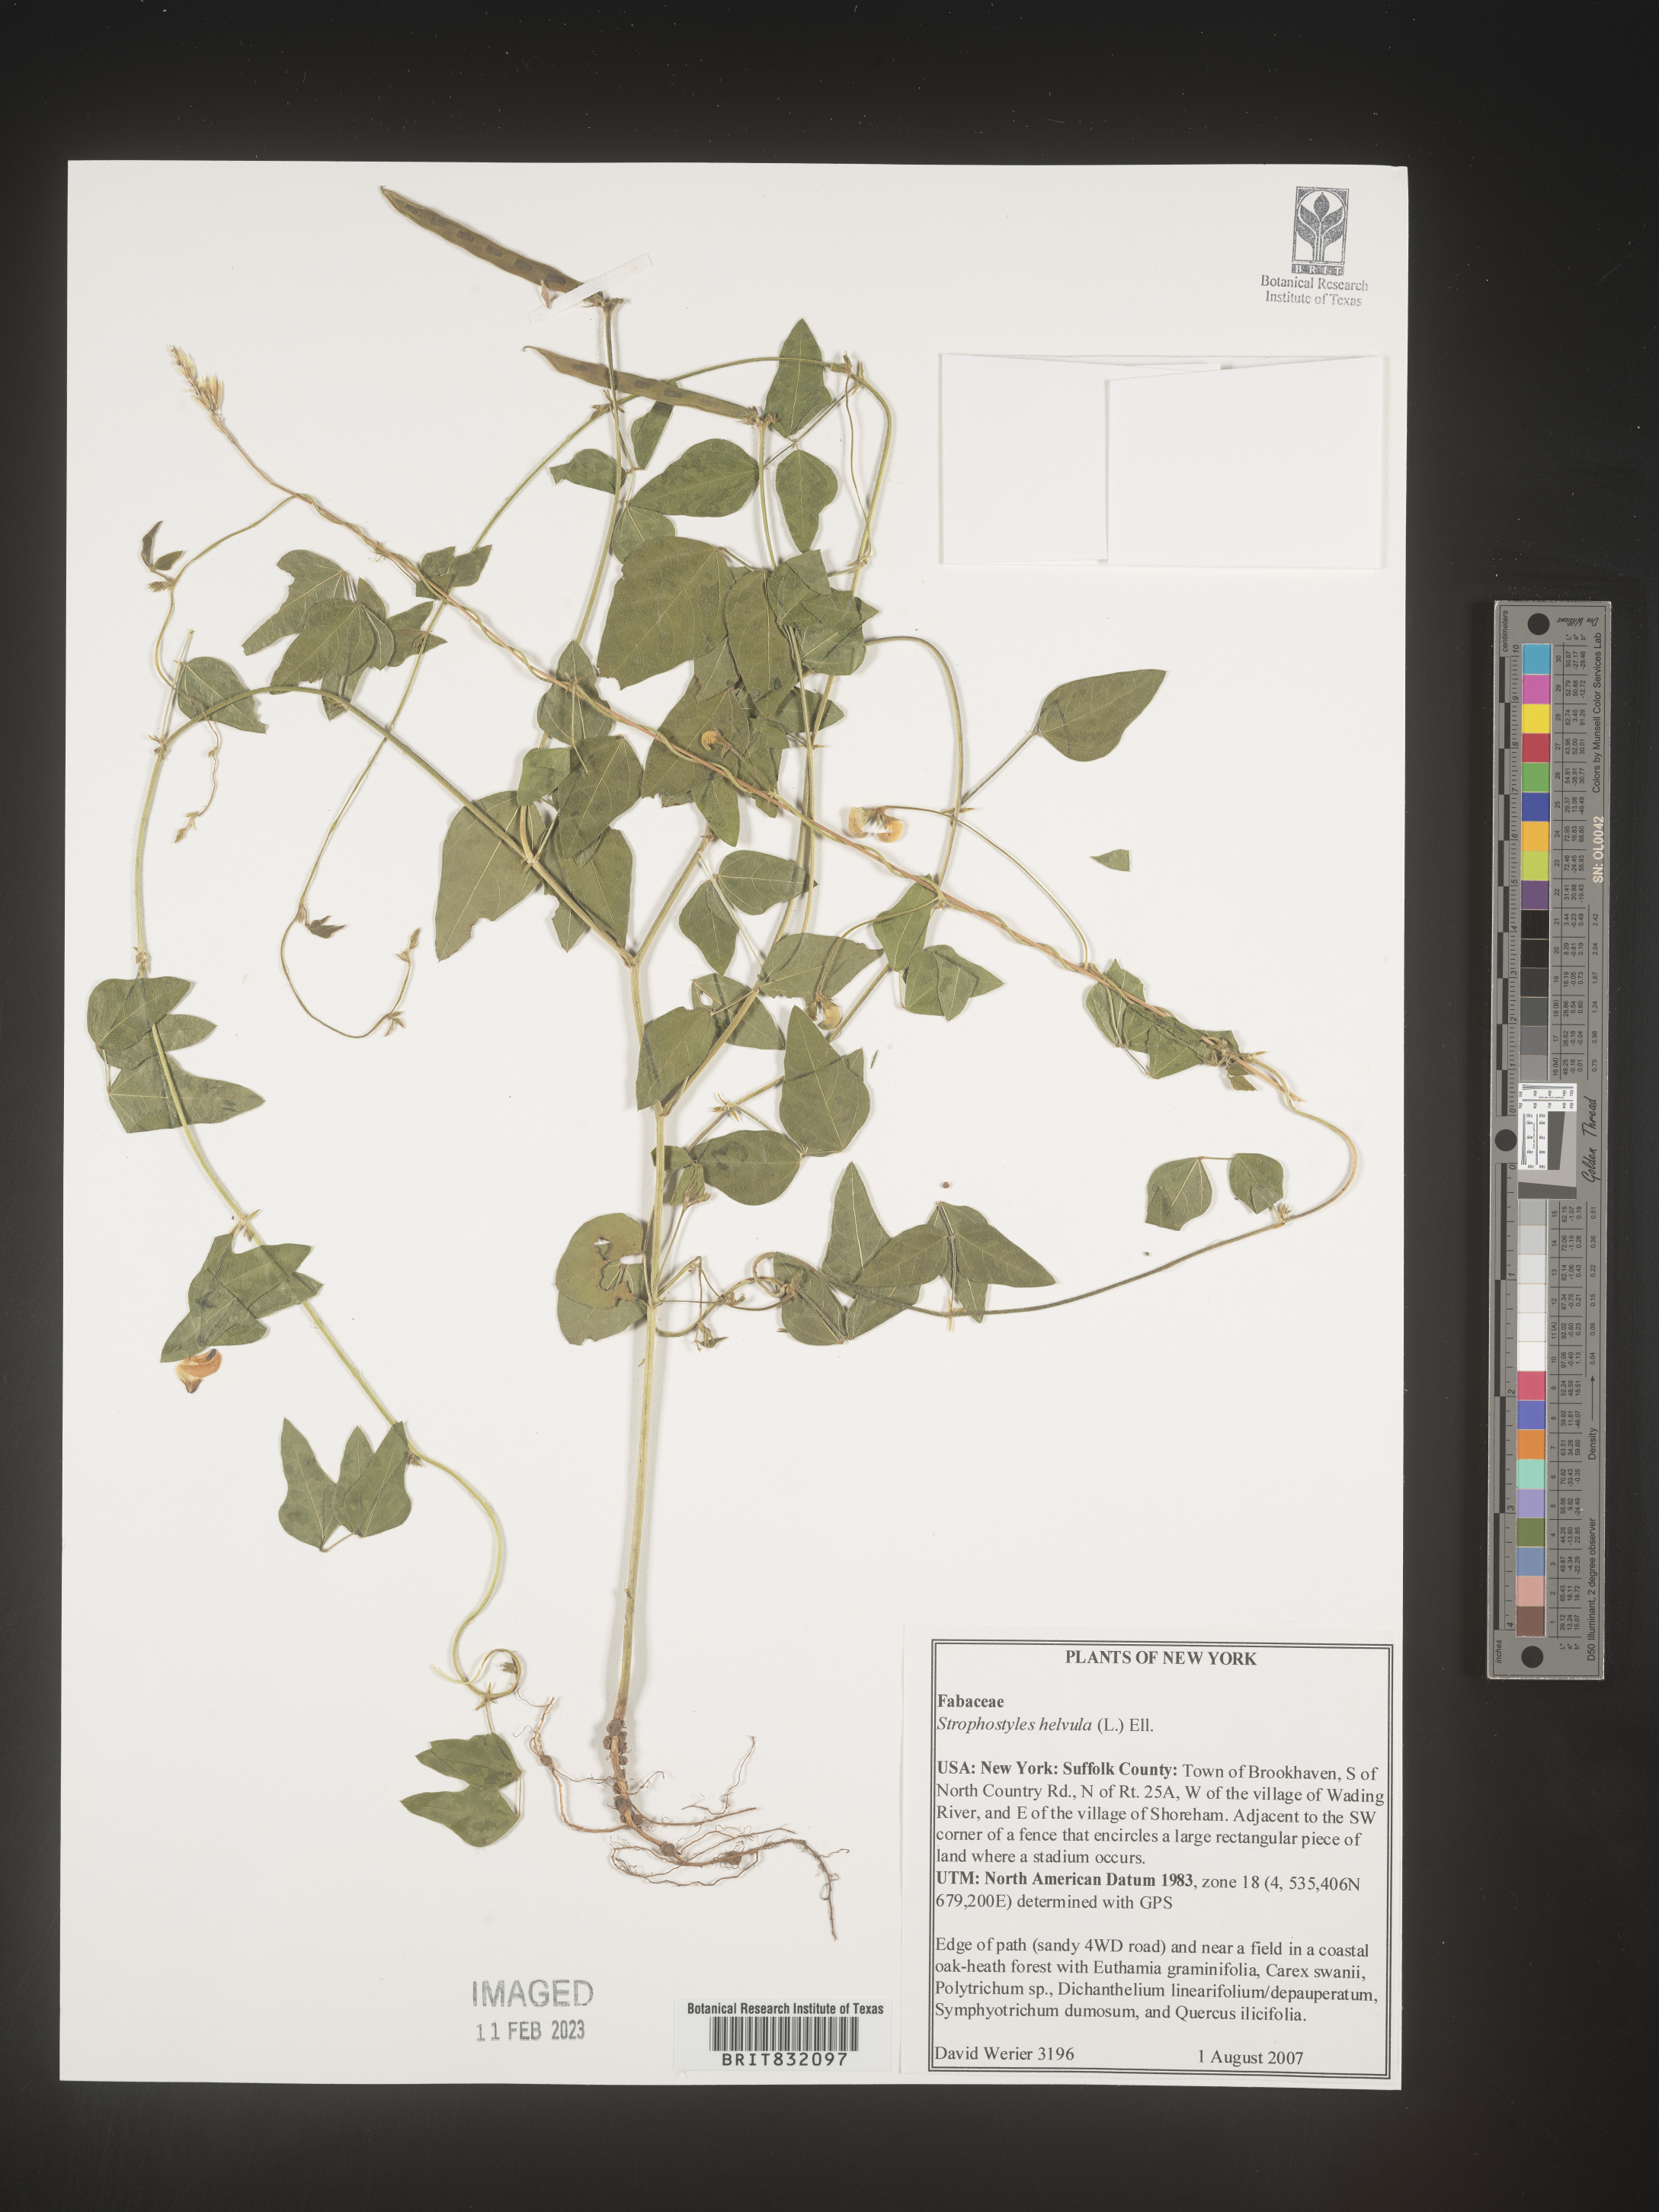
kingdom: Plantae
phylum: Tracheophyta
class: Magnoliopsida
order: Fabales
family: Fabaceae
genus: Strophostyles
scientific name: Strophostyles helvola
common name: Trailing wild bean
